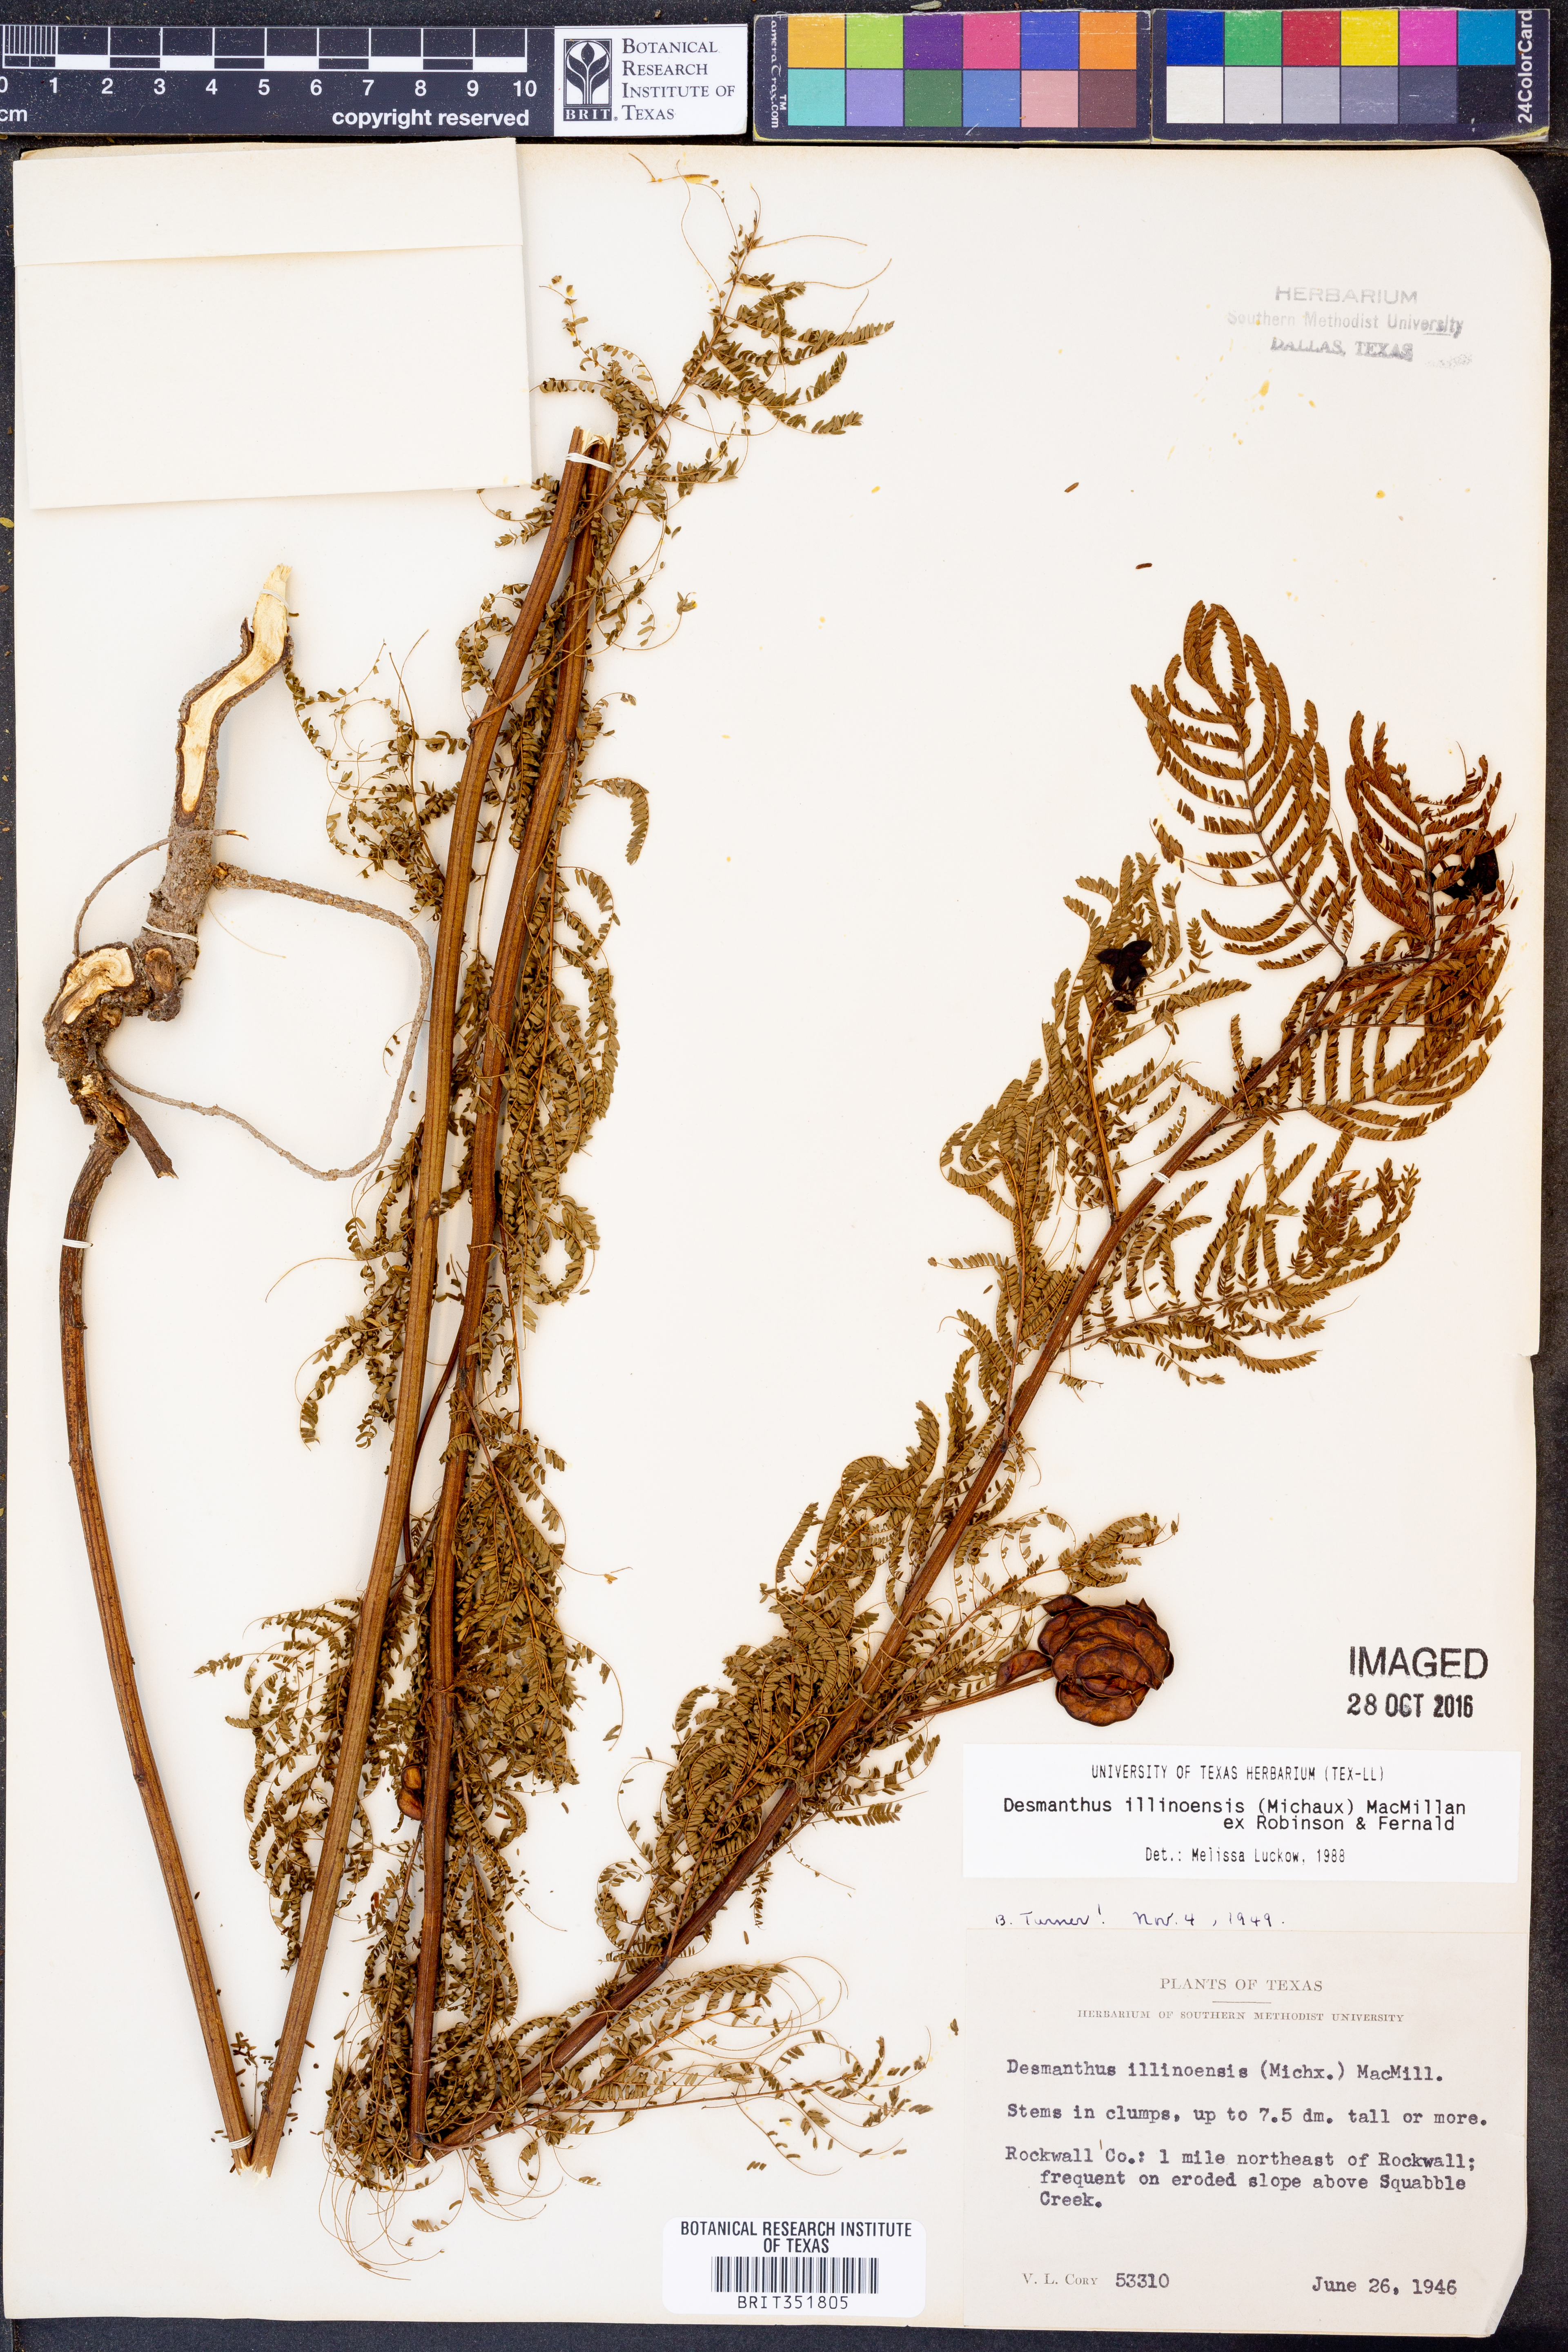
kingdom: Plantae
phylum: Tracheophyta
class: Magnoliopsida
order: Fabales
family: Fabaceae
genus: Desmanthus
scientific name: Desmanthus illinoensis
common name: Illinois bundle-flower
